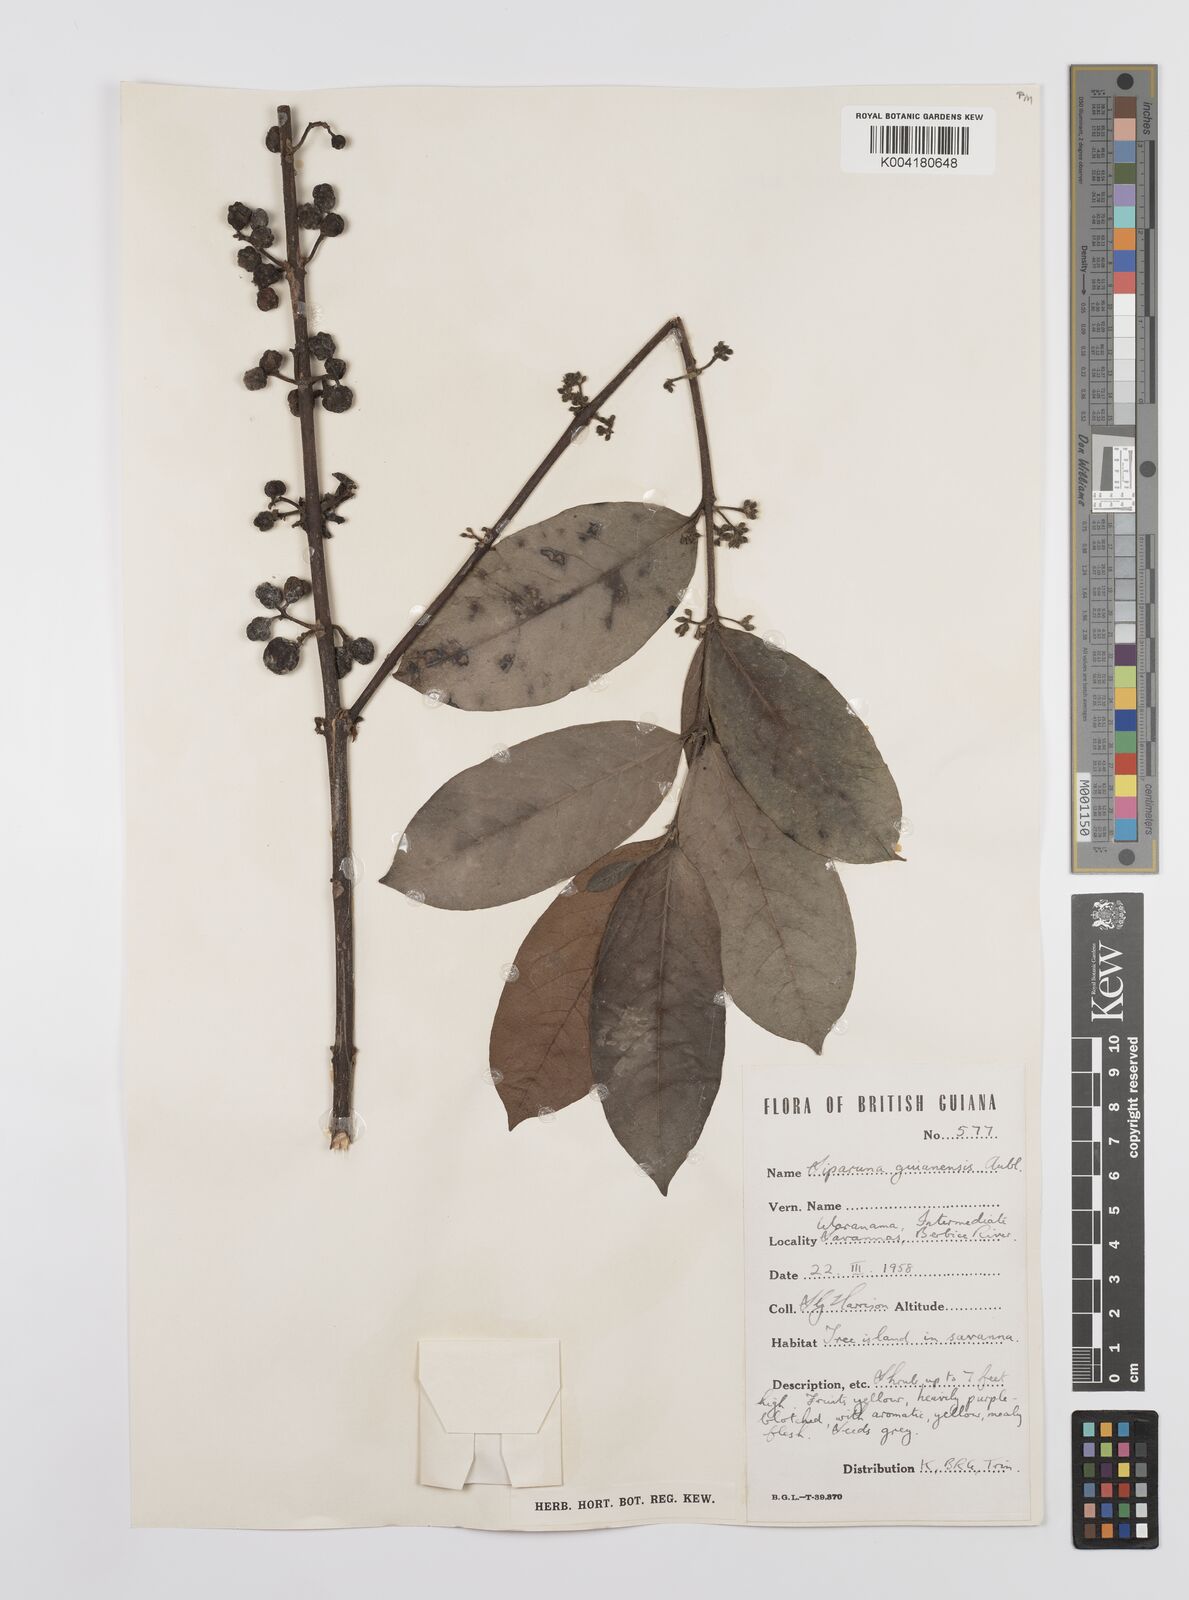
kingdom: Plantae
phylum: Tracheophyta
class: Magnoliopsida
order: Laurales
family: Siparunaceae
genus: Siparuna
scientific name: Siparuna guianensis
